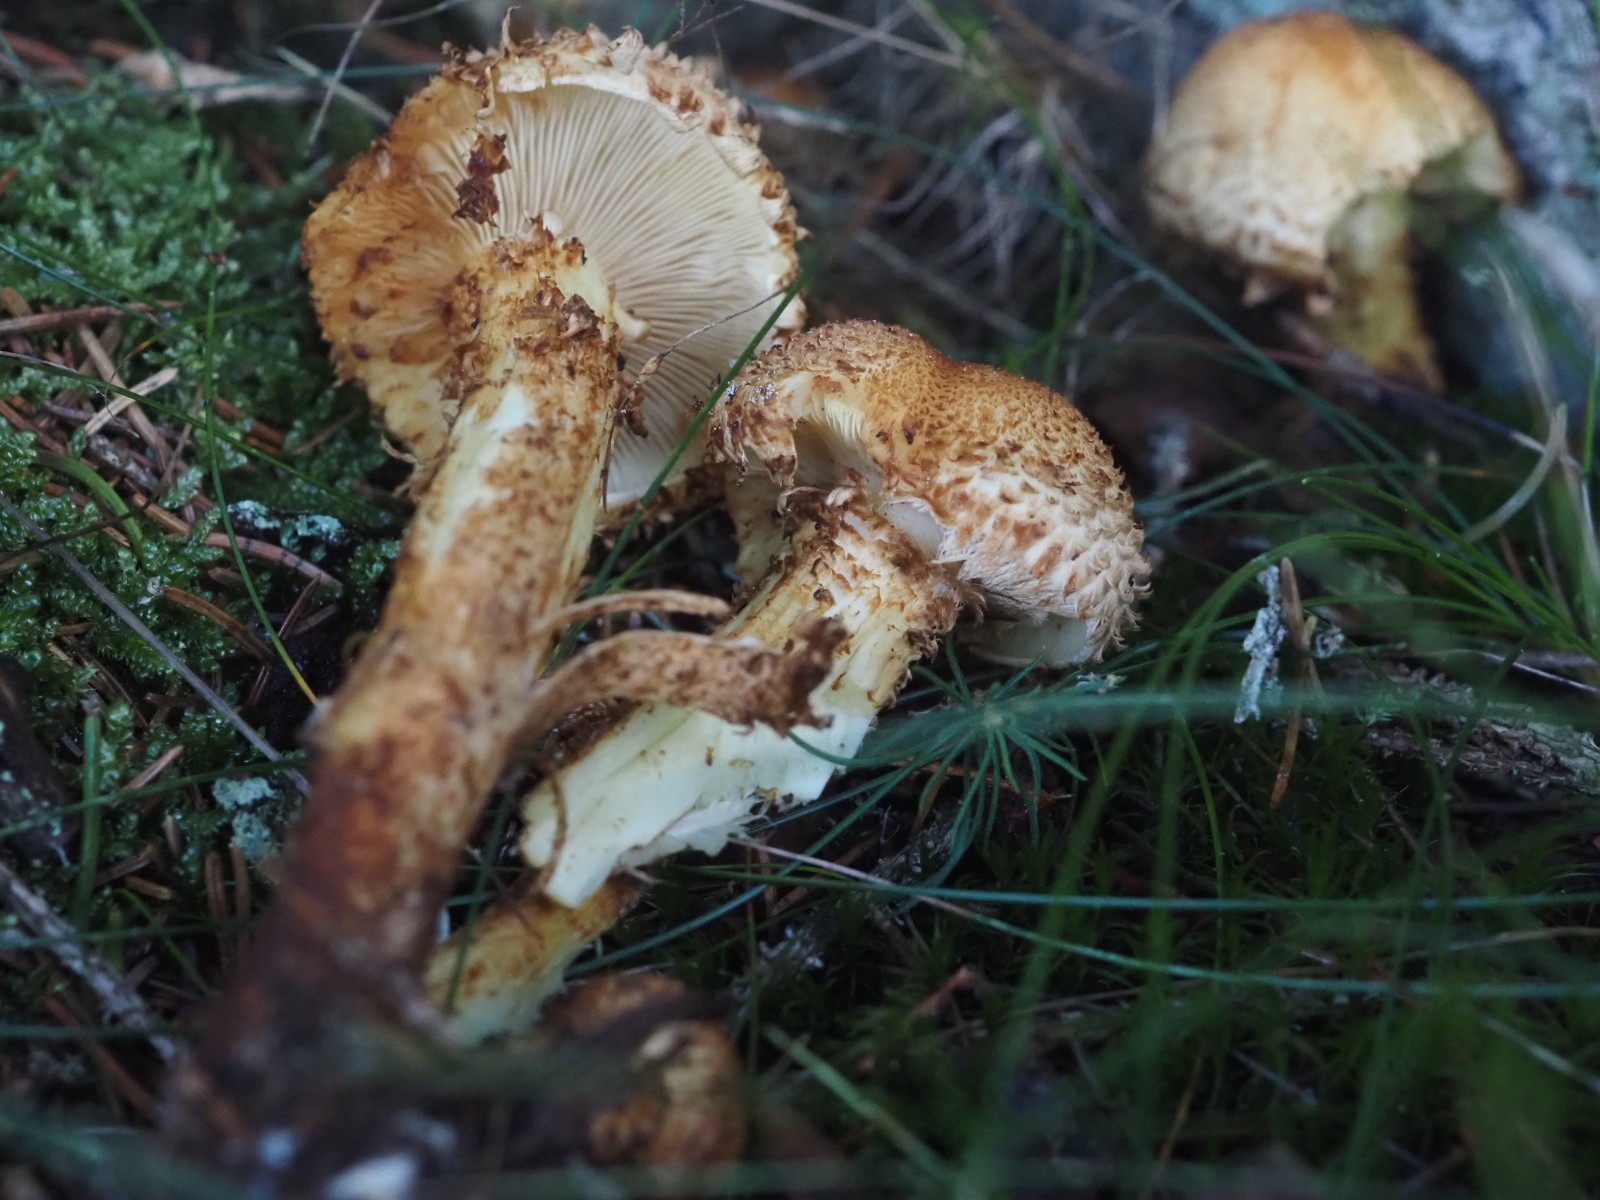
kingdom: Fungi
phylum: Basidiomycota
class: Agaricomycetes
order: Agaricales
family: Strophariaceae
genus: Pholiota
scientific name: Pholiota squarrosa
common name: krumskællet skælhat
